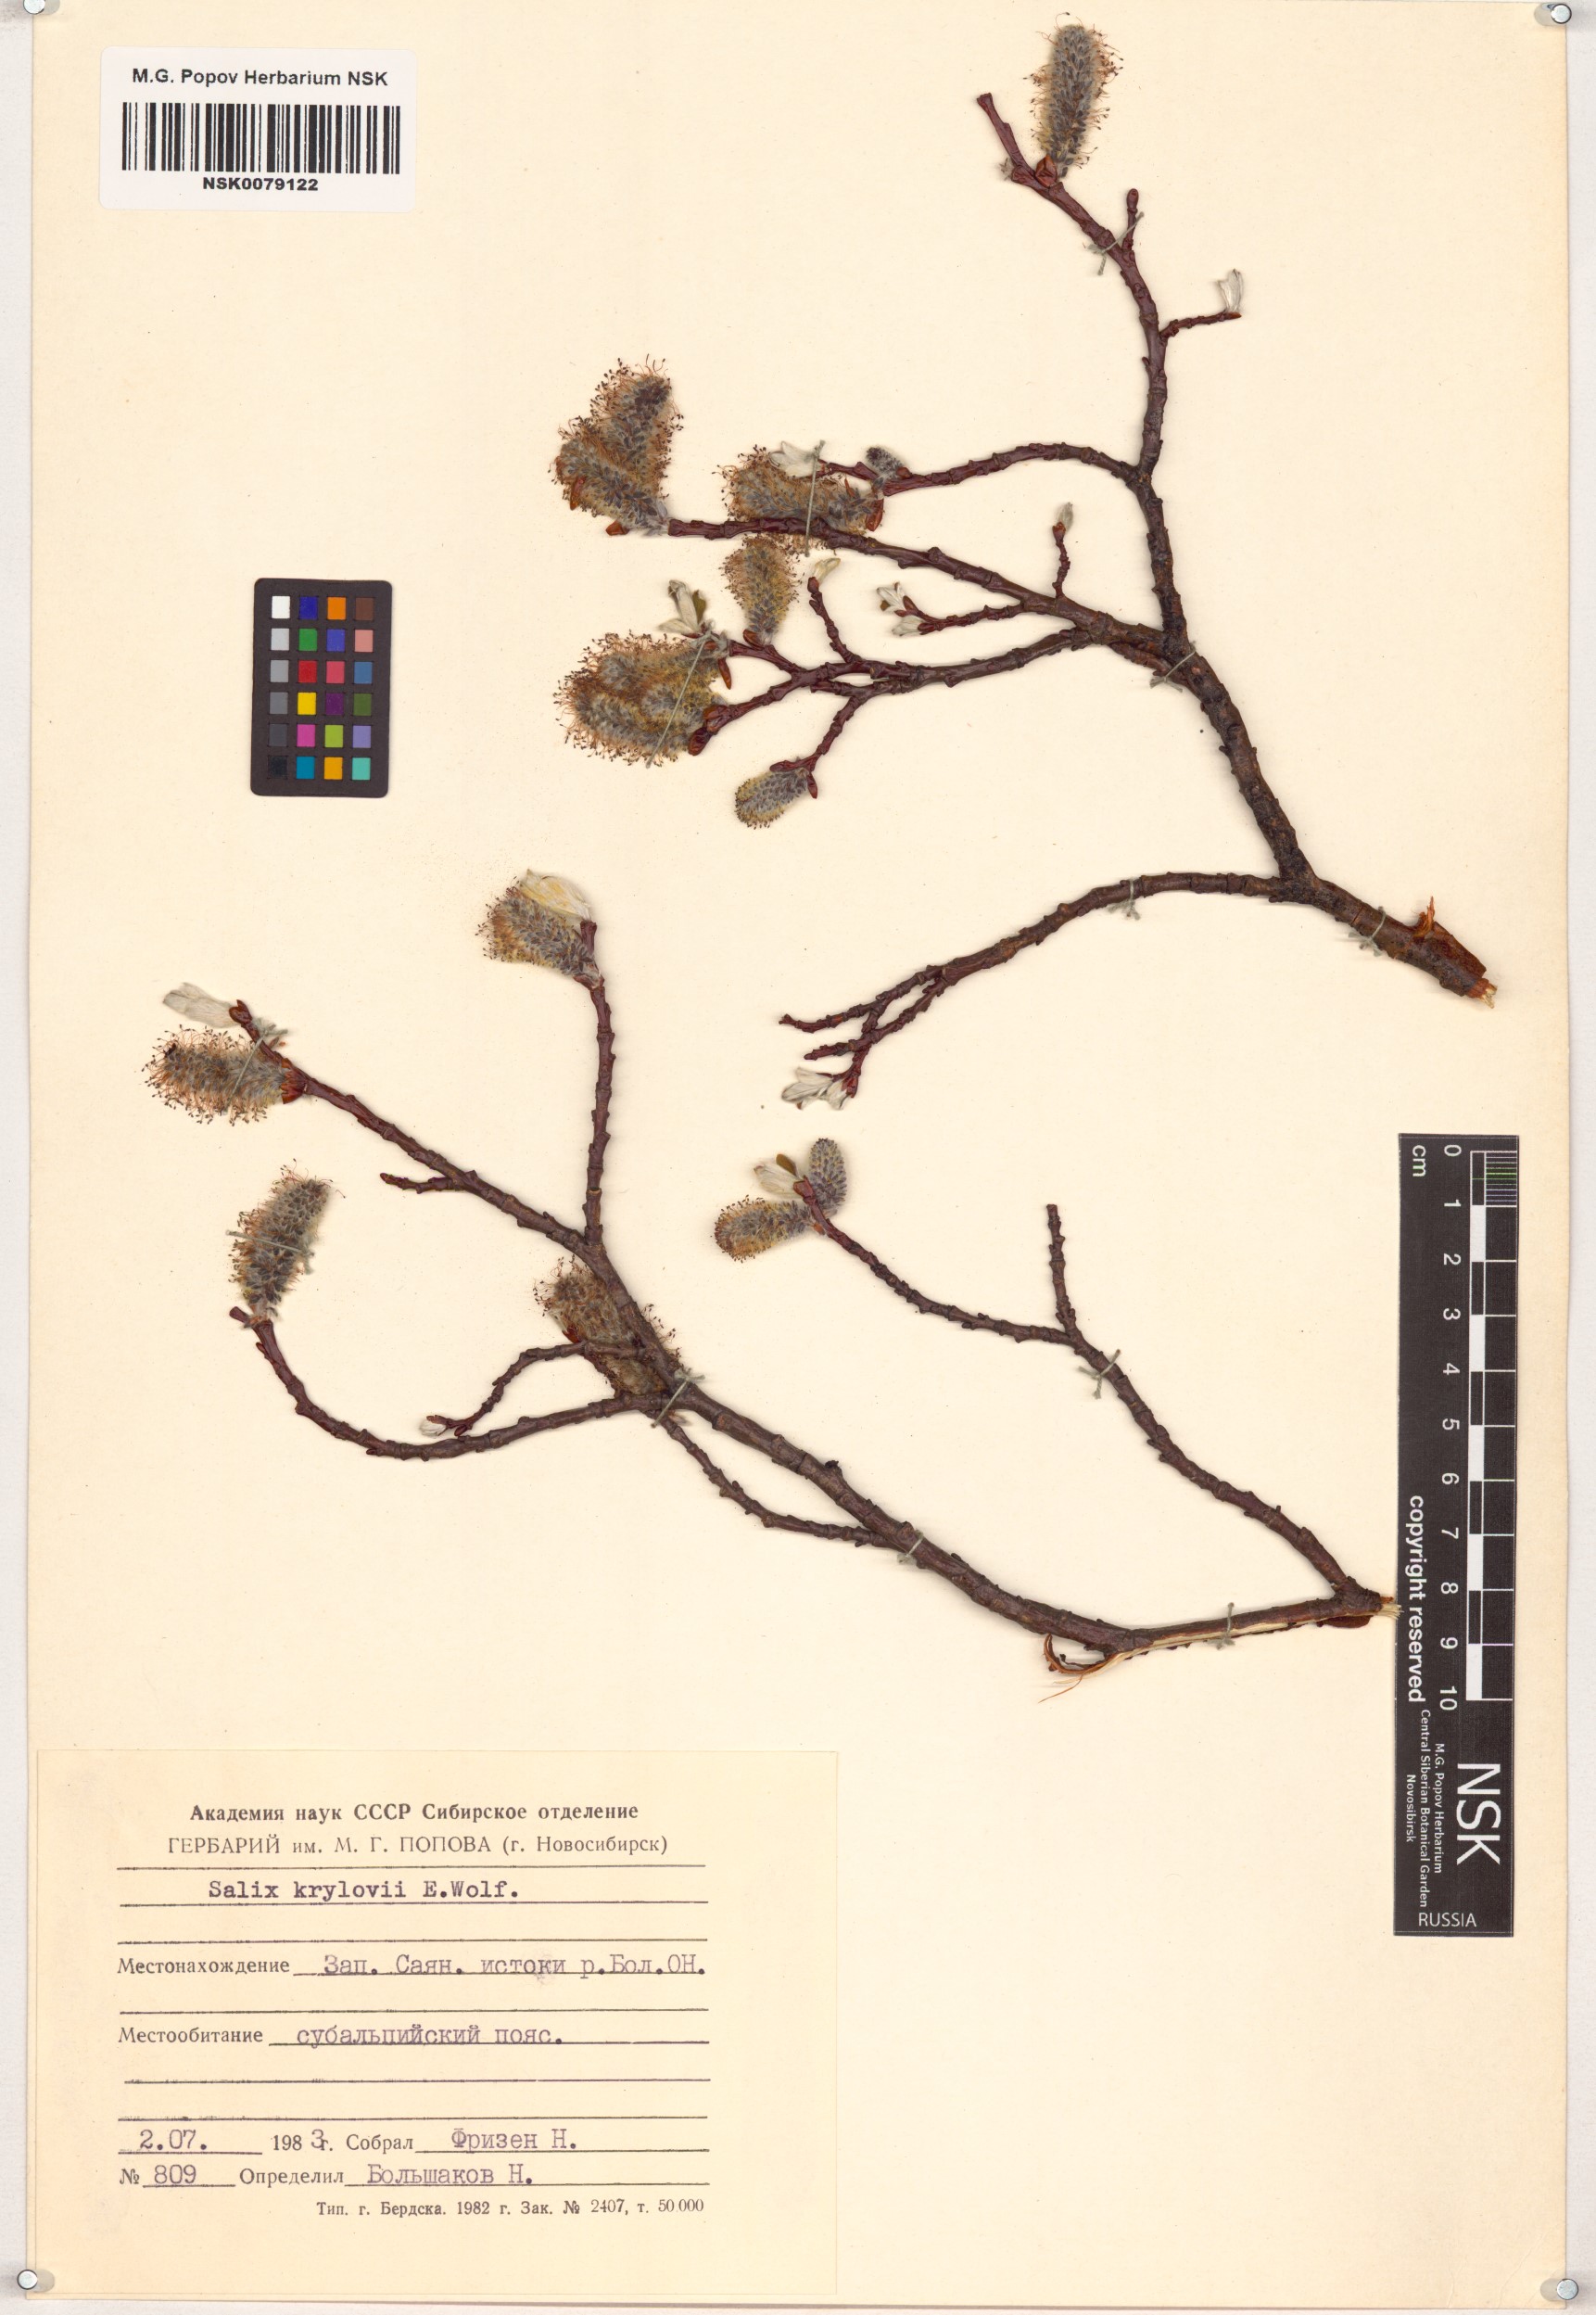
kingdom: Plantae
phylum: Tracheophyta
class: Magnoliopsida
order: Malpighiales
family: Salicaceae
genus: Salix
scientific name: Salix krylovii
